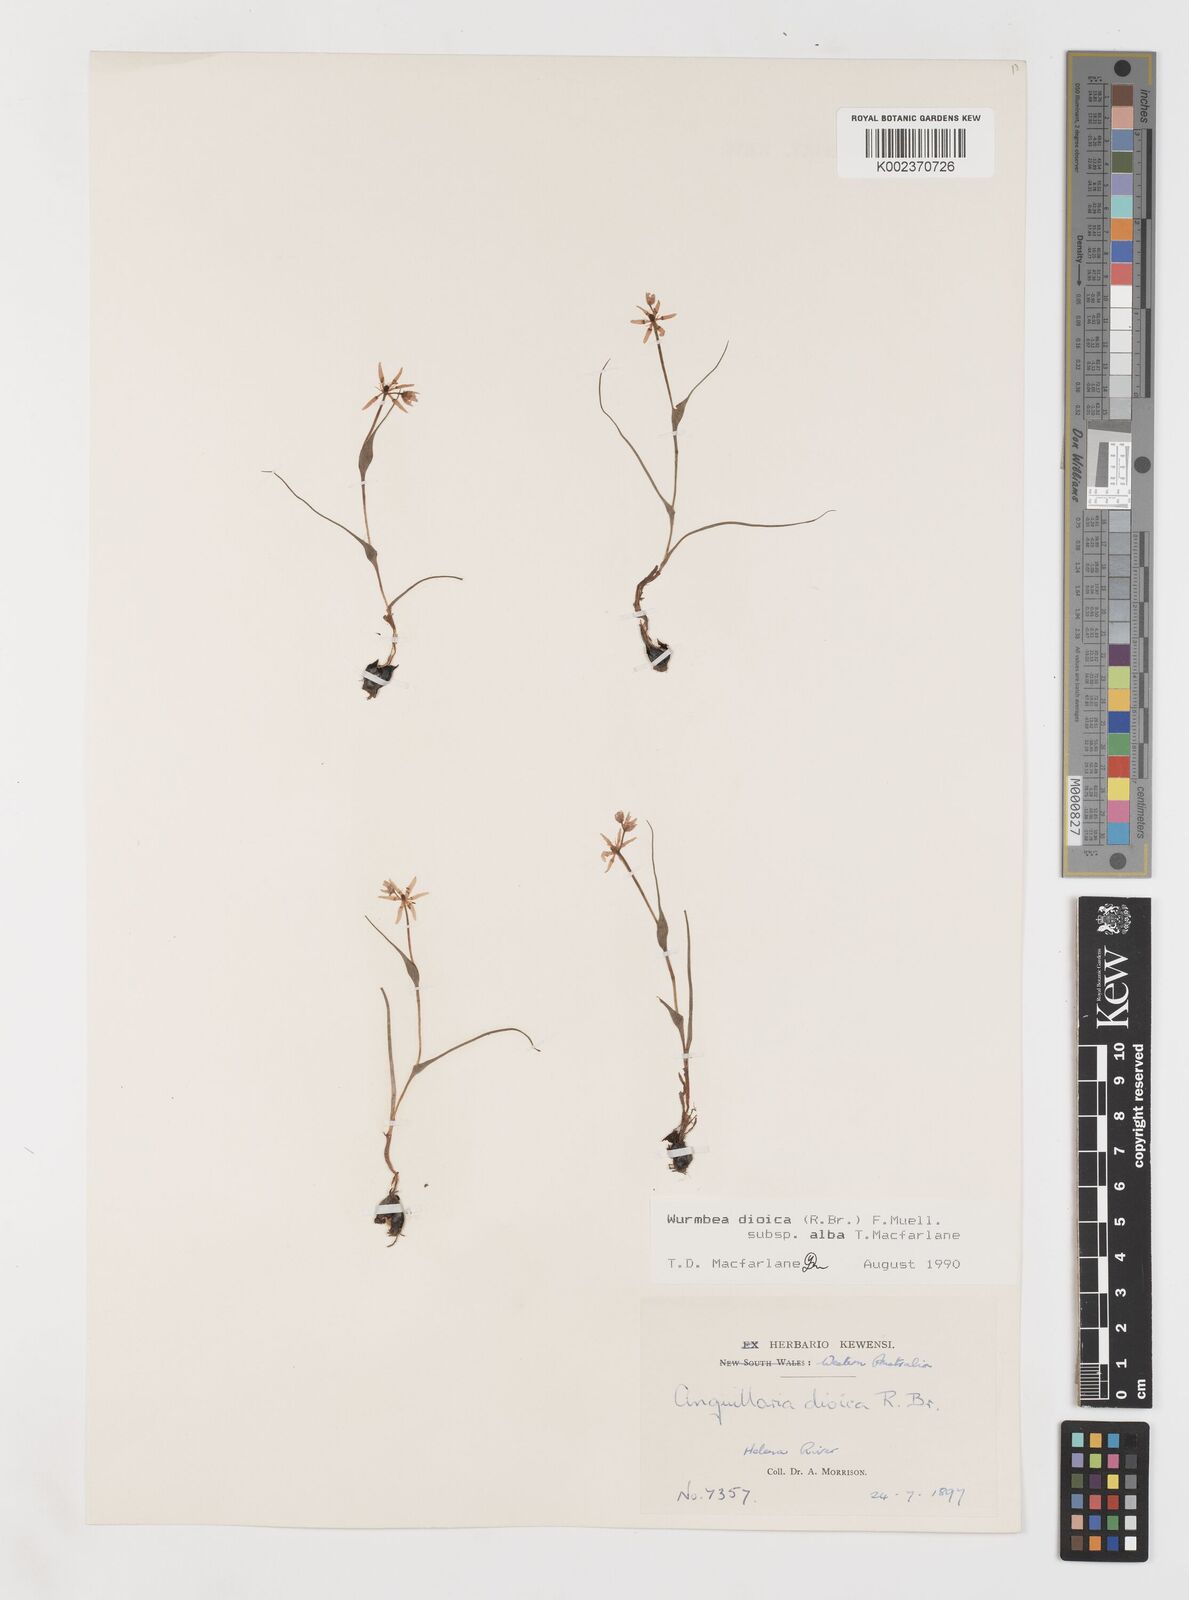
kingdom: Plantae
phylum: Tracheophyta
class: Liliopsida
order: Liliales
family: Colchicaceae
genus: Wurmbea
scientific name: Wurmbea dioica
